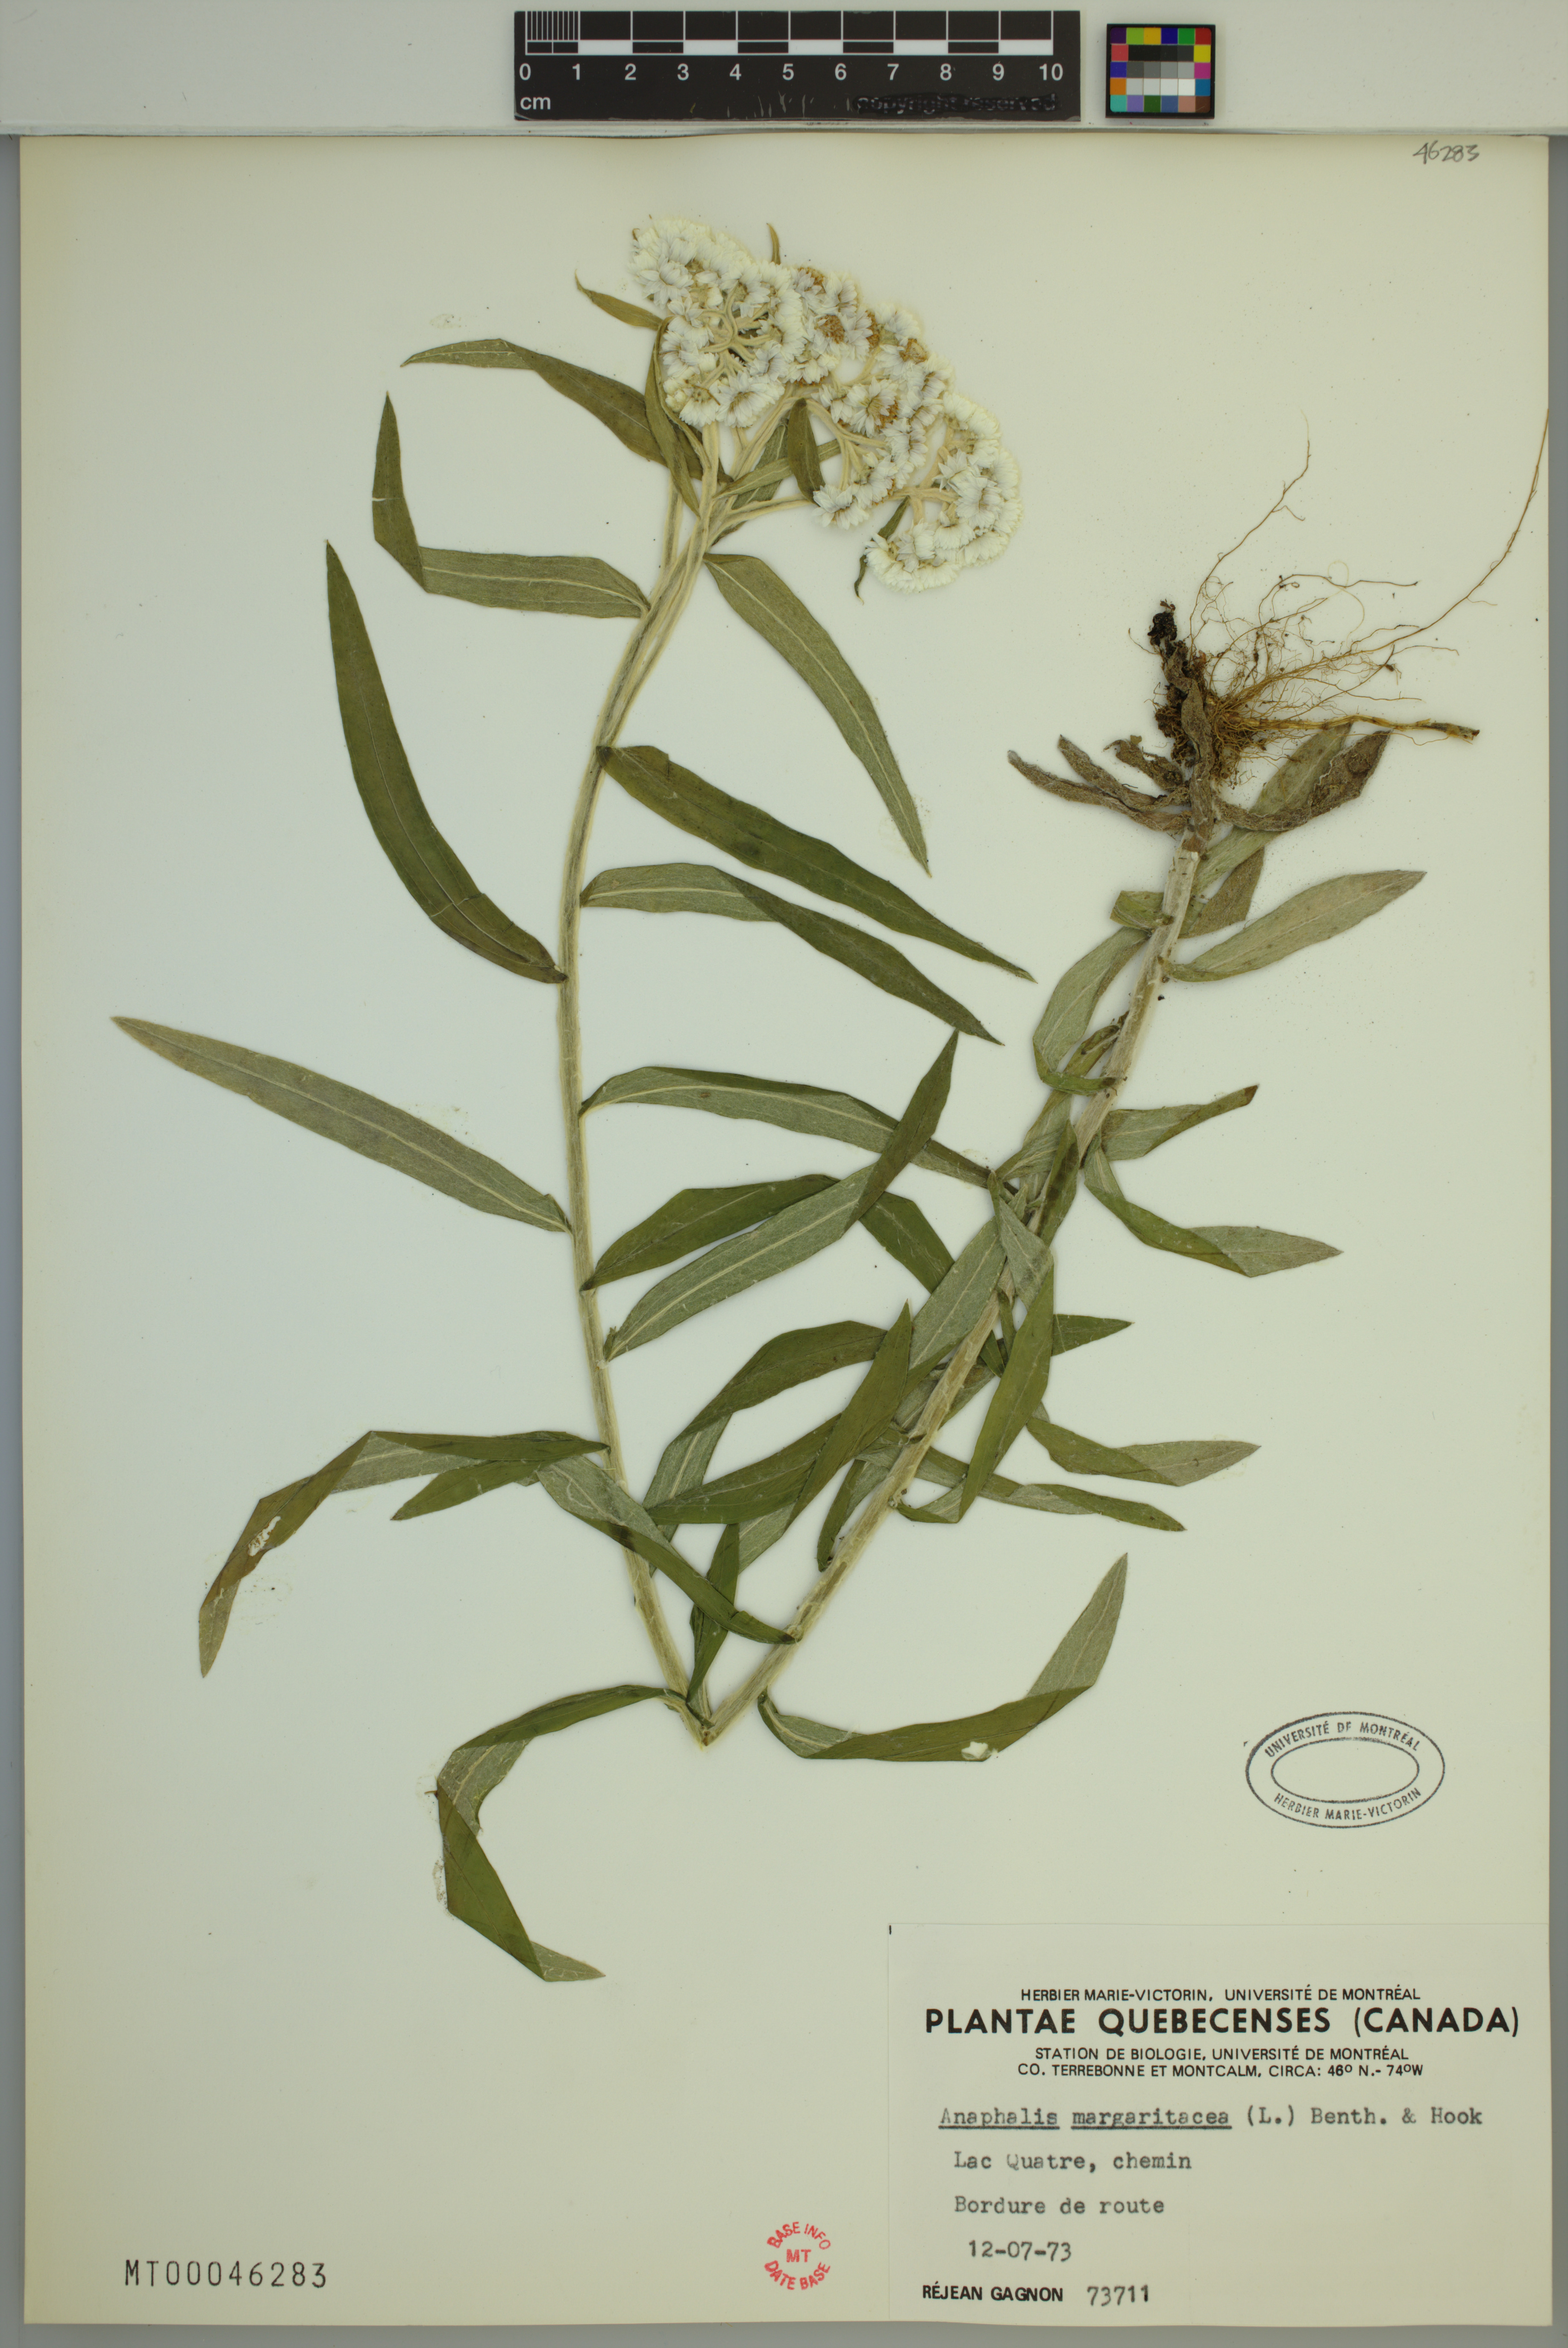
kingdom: Plantae
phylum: Tracheophyta
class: Magnoliopsida
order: Asterales
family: Asteraceae
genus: Anaphalis
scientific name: Anaphalis margaritacea
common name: Pearly everlasting
